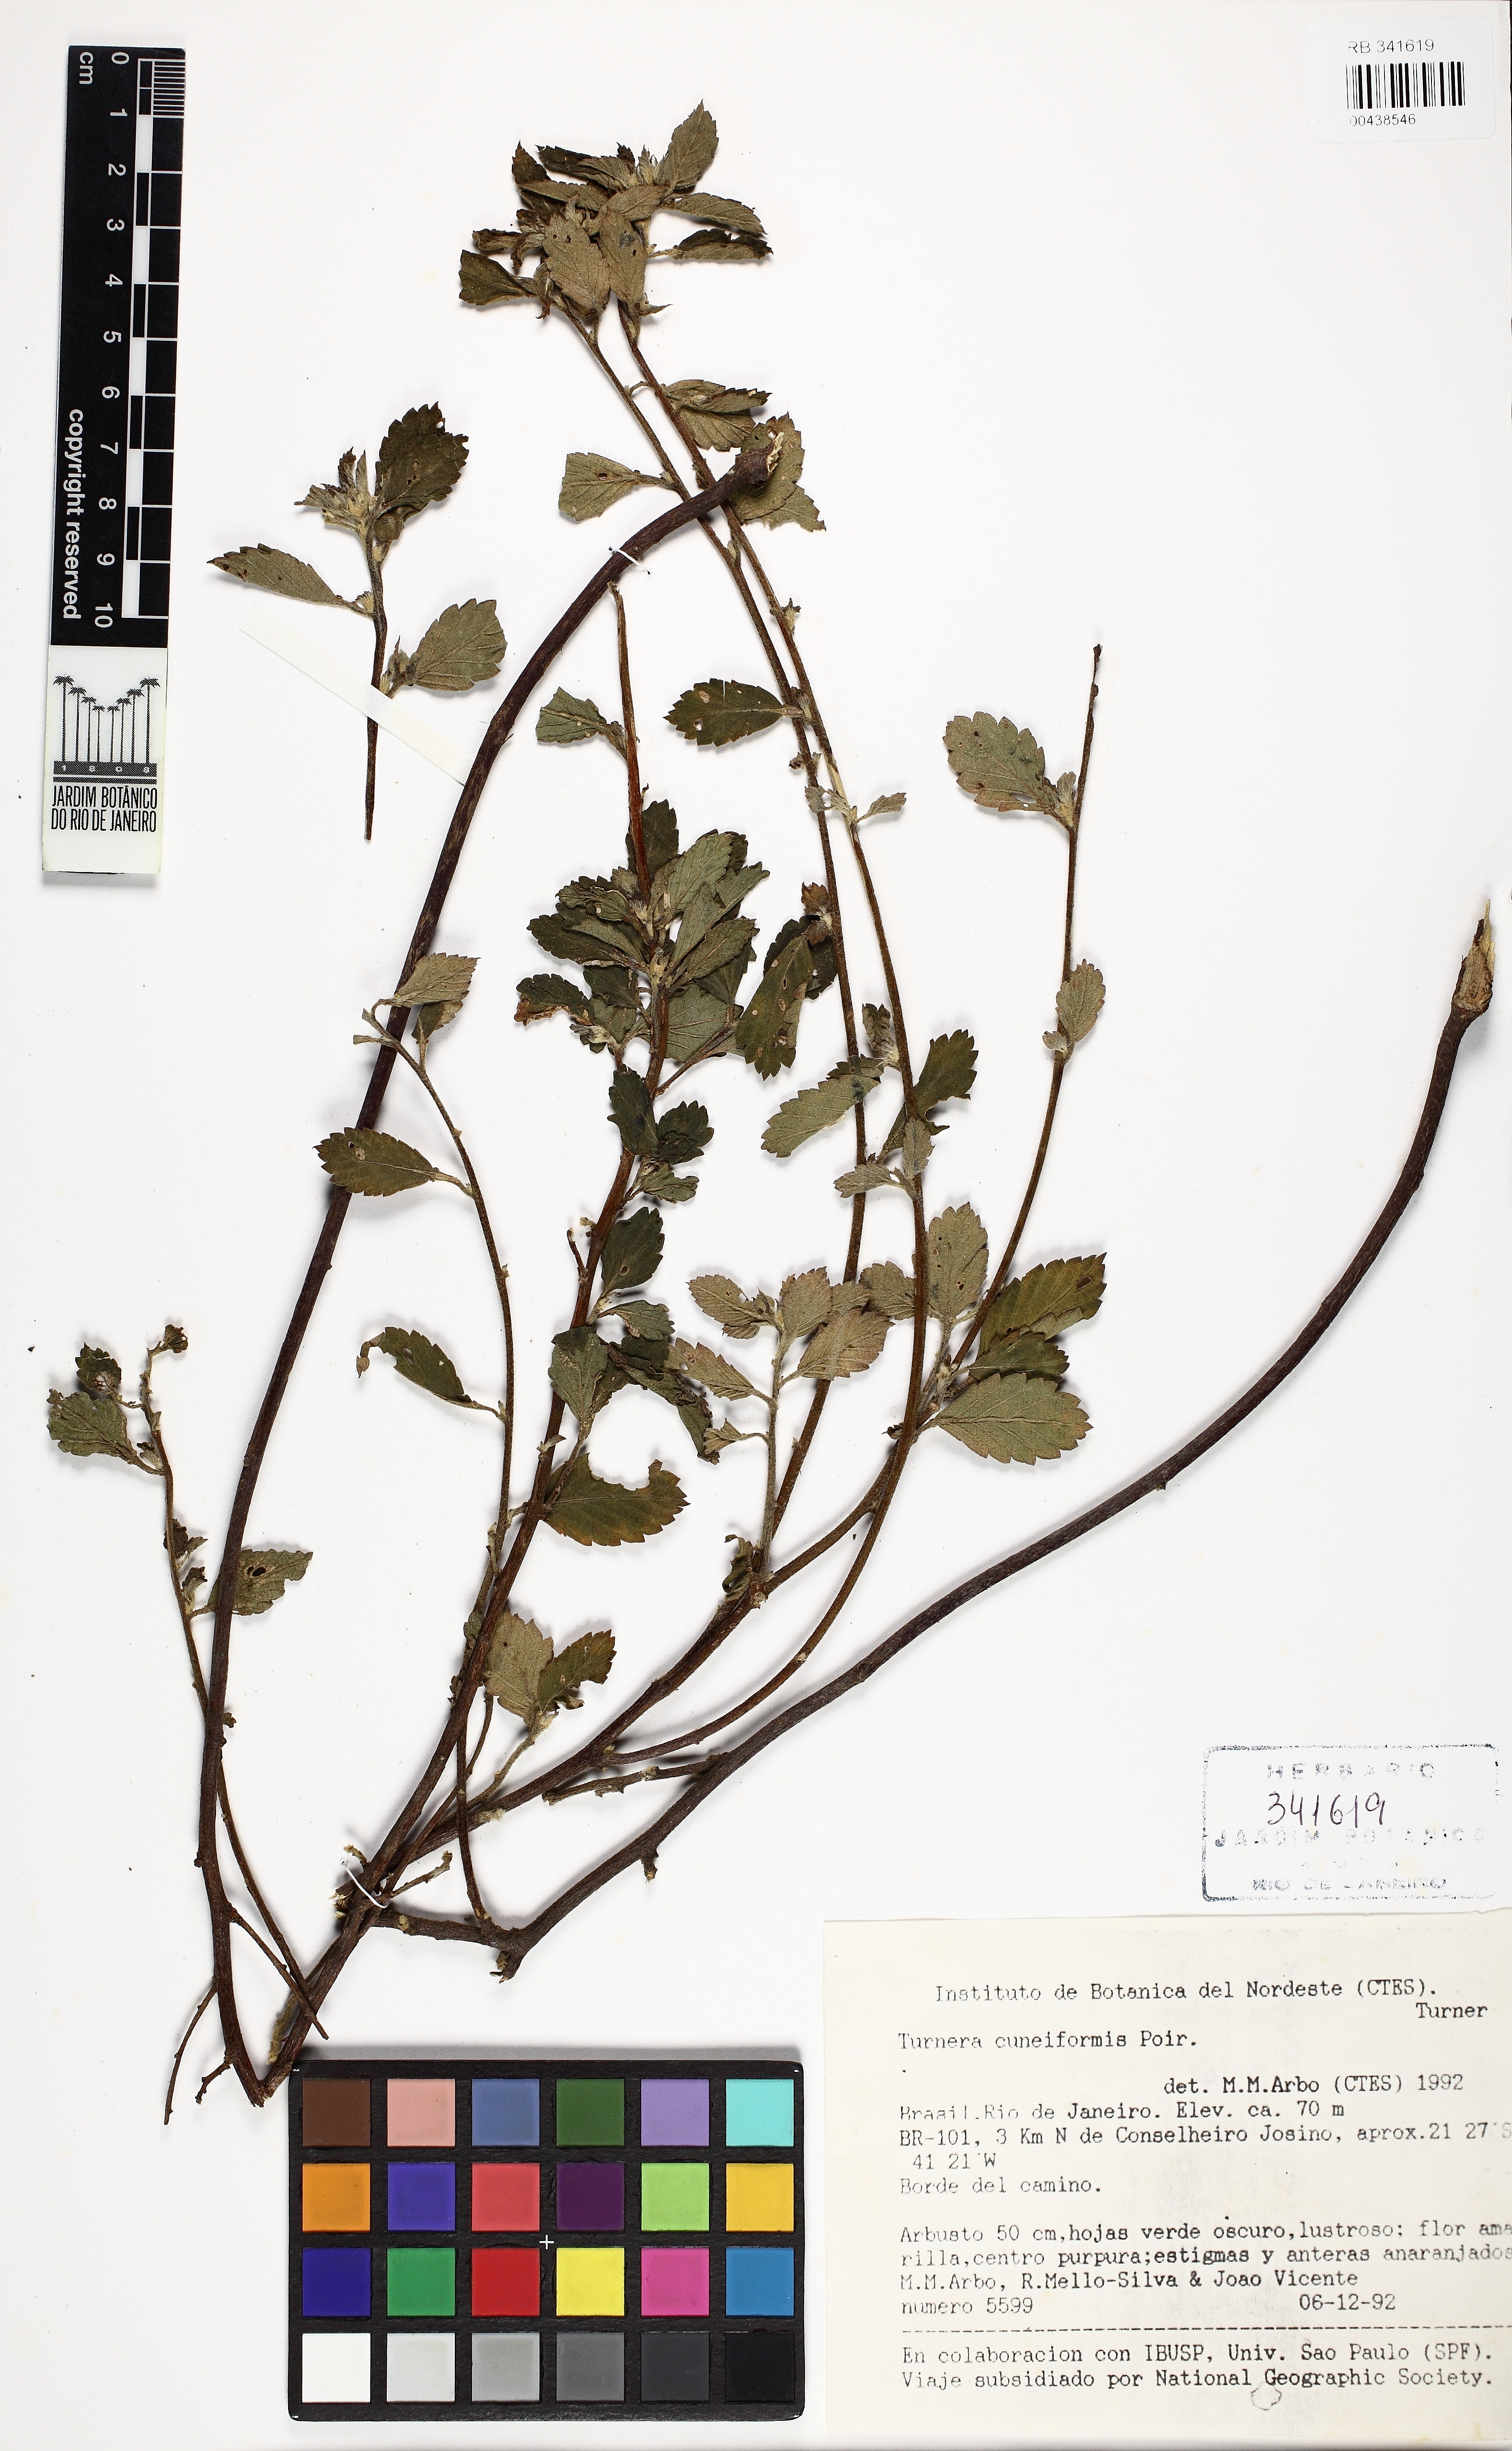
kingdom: Plantae
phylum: Tracheophyta
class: Magnoliopsida
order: Malpighiales
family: Turneraceae
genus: Turnera
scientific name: Turnera cuneiformis
